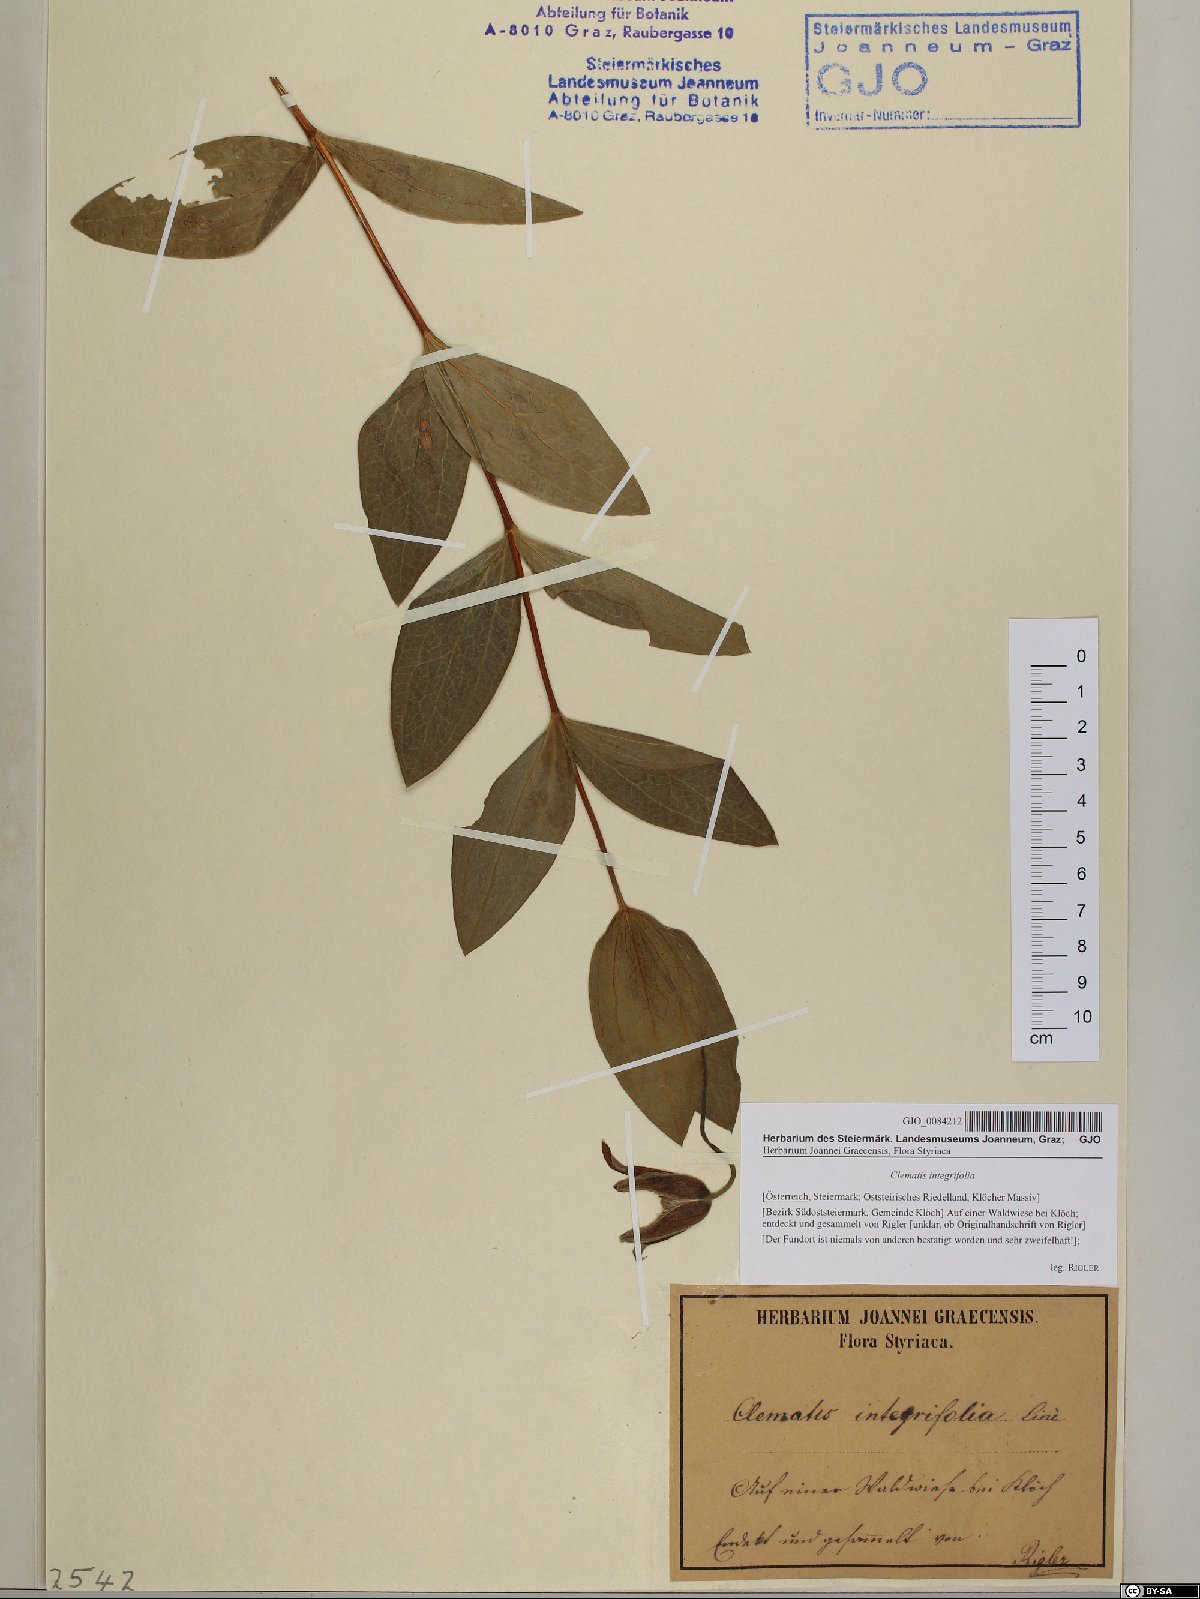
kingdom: Plantae
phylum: Tracheophyta
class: Magnoliopsida
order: Ranunculales
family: Ranunculaceae
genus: Clematis
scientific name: Clematis integrifolia
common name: Solitary clematis
